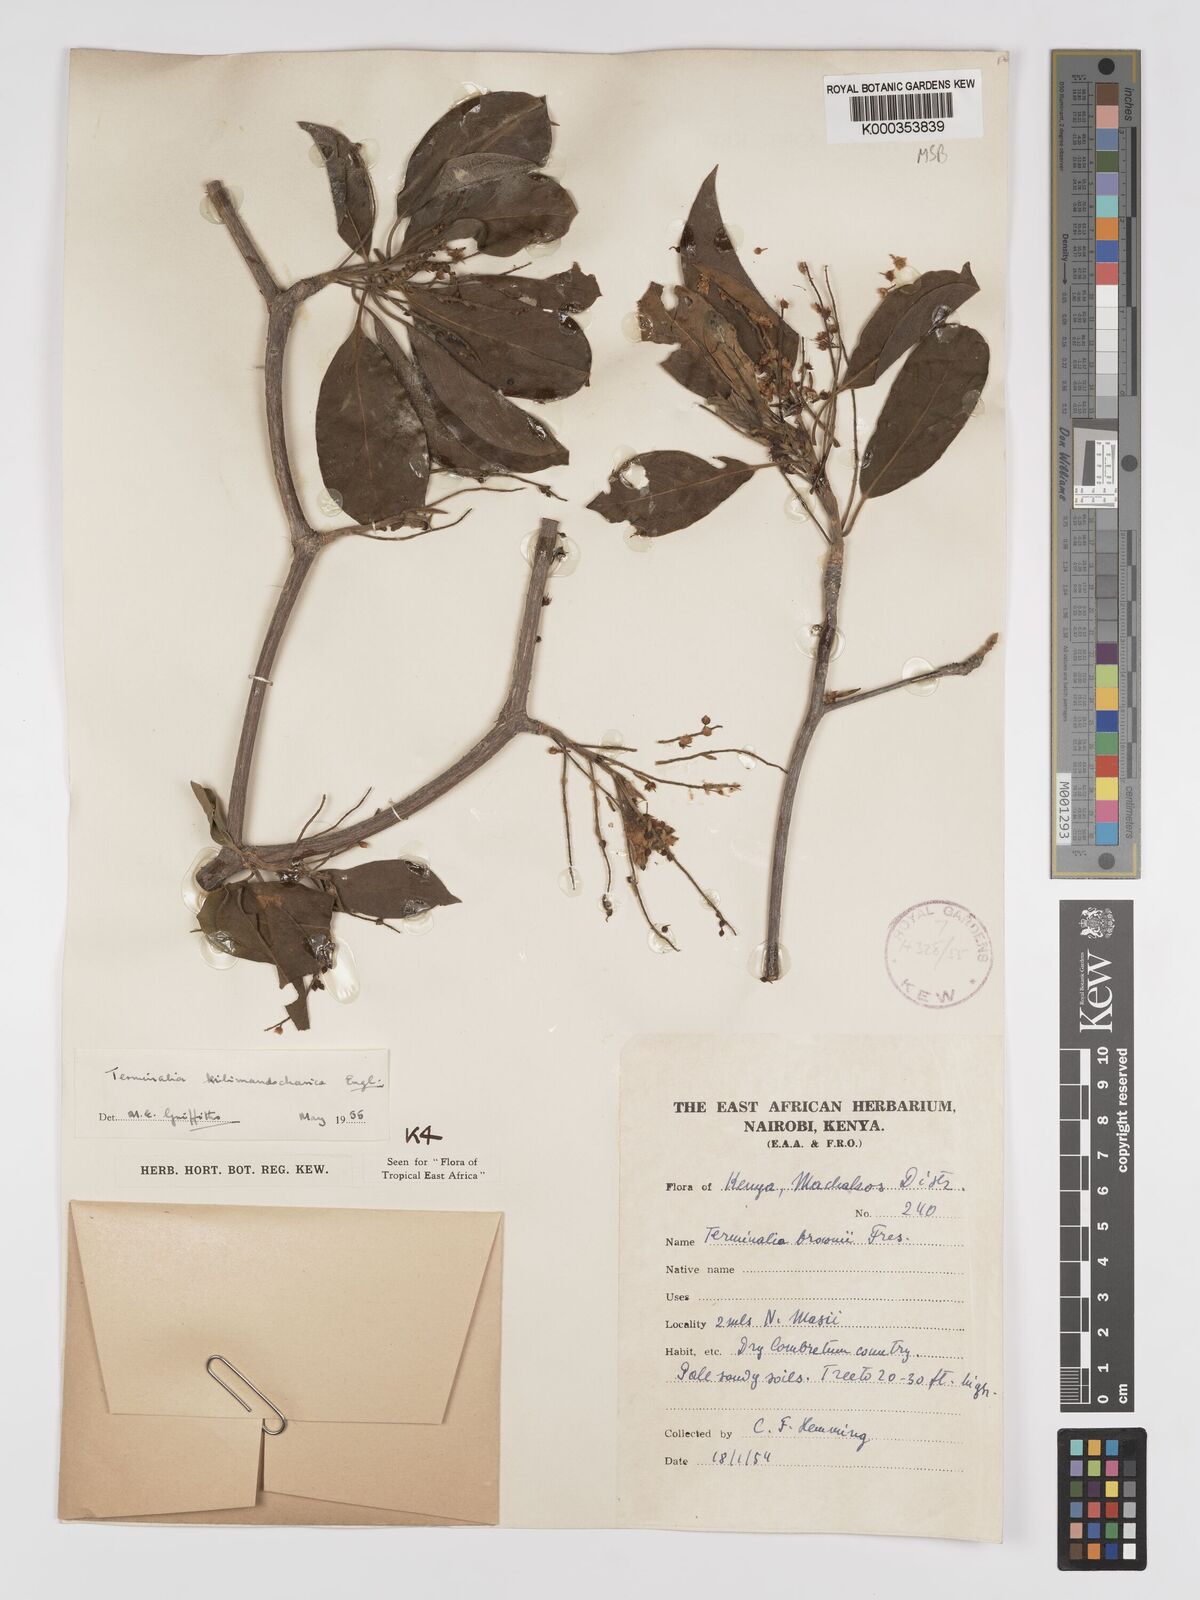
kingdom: Plantae
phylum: Tracheophyta
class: Magnoliopsida
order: Myrtales
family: Combretaceae
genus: Terminalia
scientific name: Terminalia kilimandscharica
